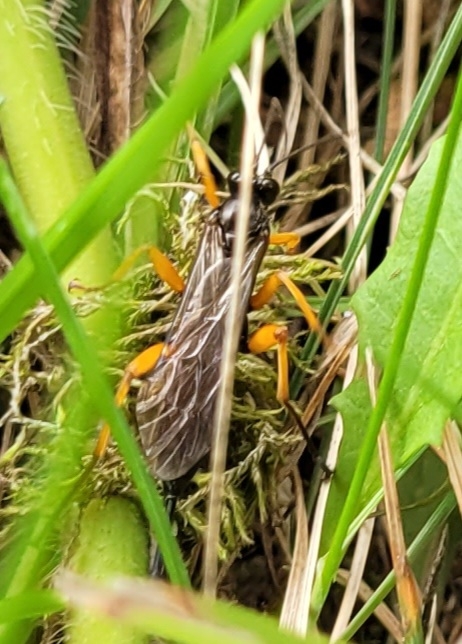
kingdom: Animalia
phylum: Arthropoda
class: Insecta
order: Hymenoptera
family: Ichneumonidae
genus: Pimpla
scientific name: Pimpla rufipes
